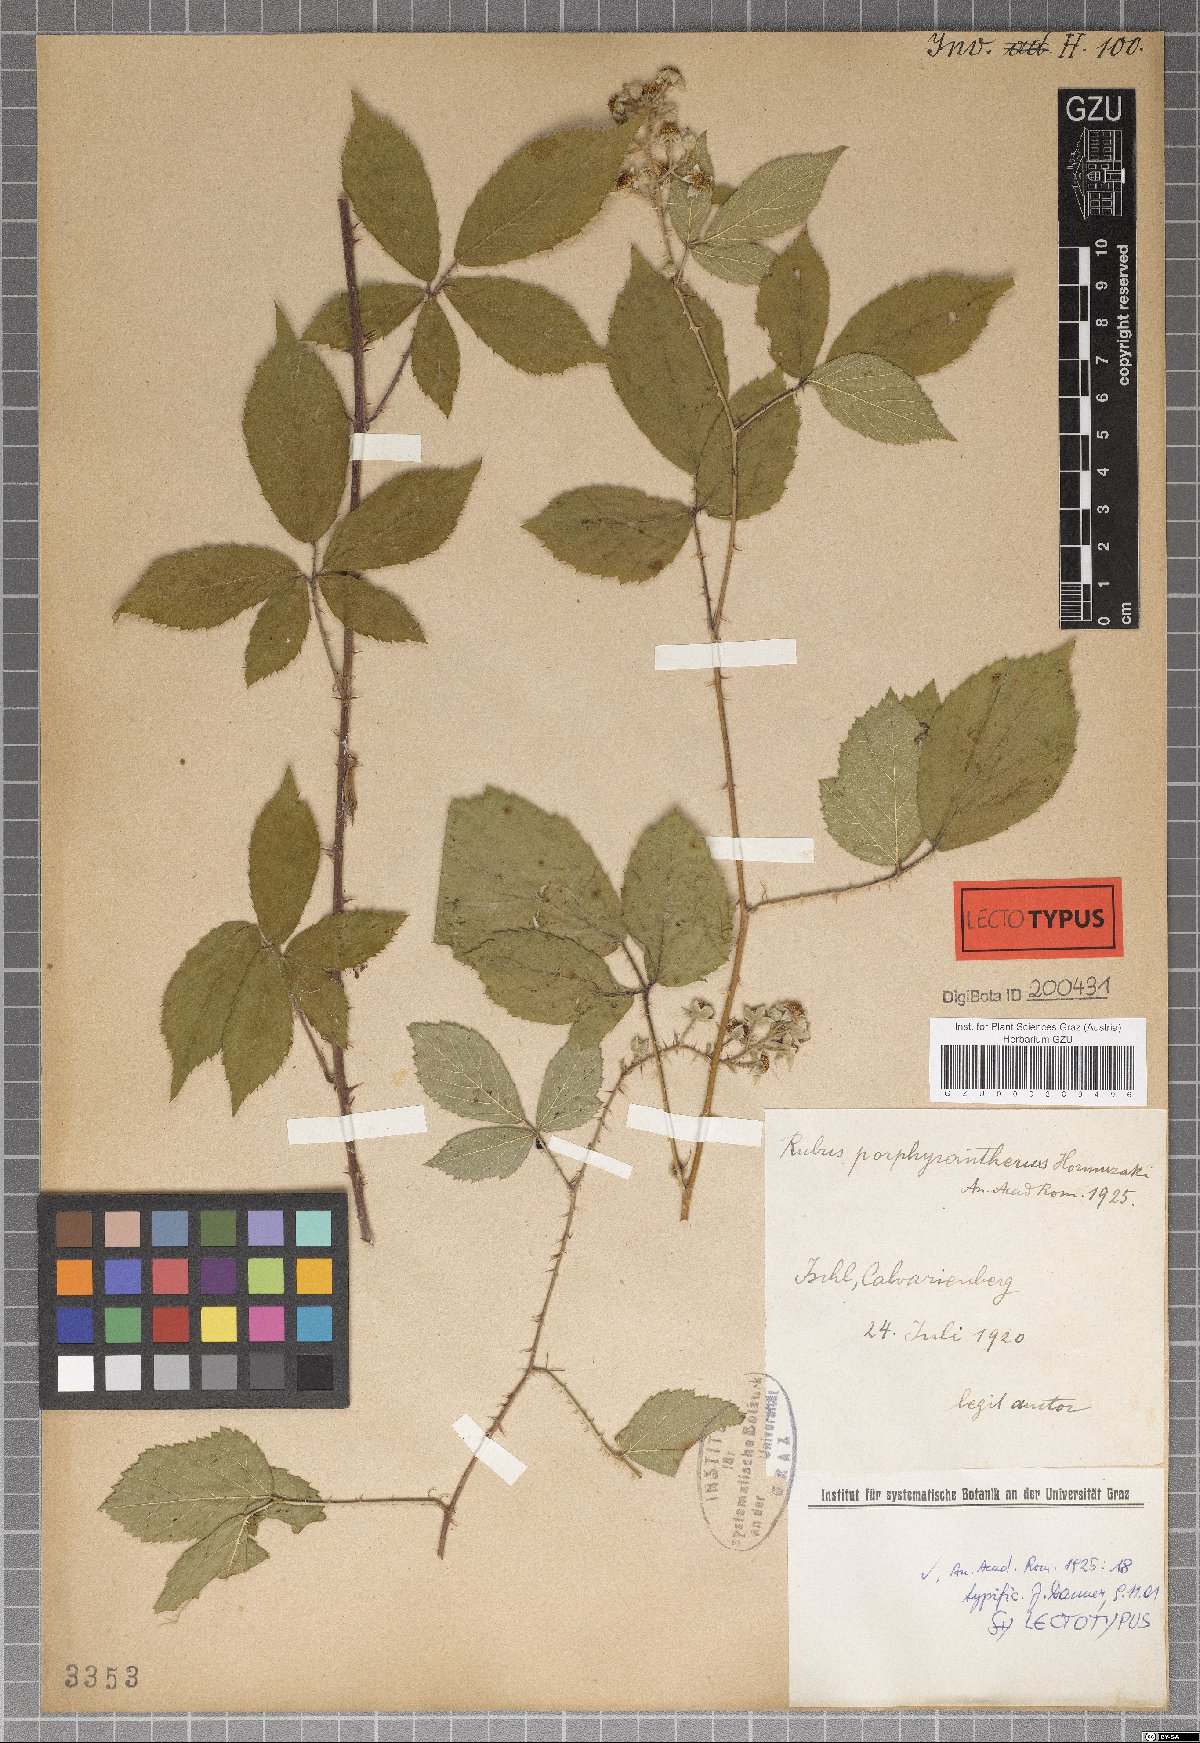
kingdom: Plantae
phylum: Tracheophyta
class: Magnoliopsida
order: Rosales
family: Rosaceae
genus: Rubus
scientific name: Rubus porphyrantherus
